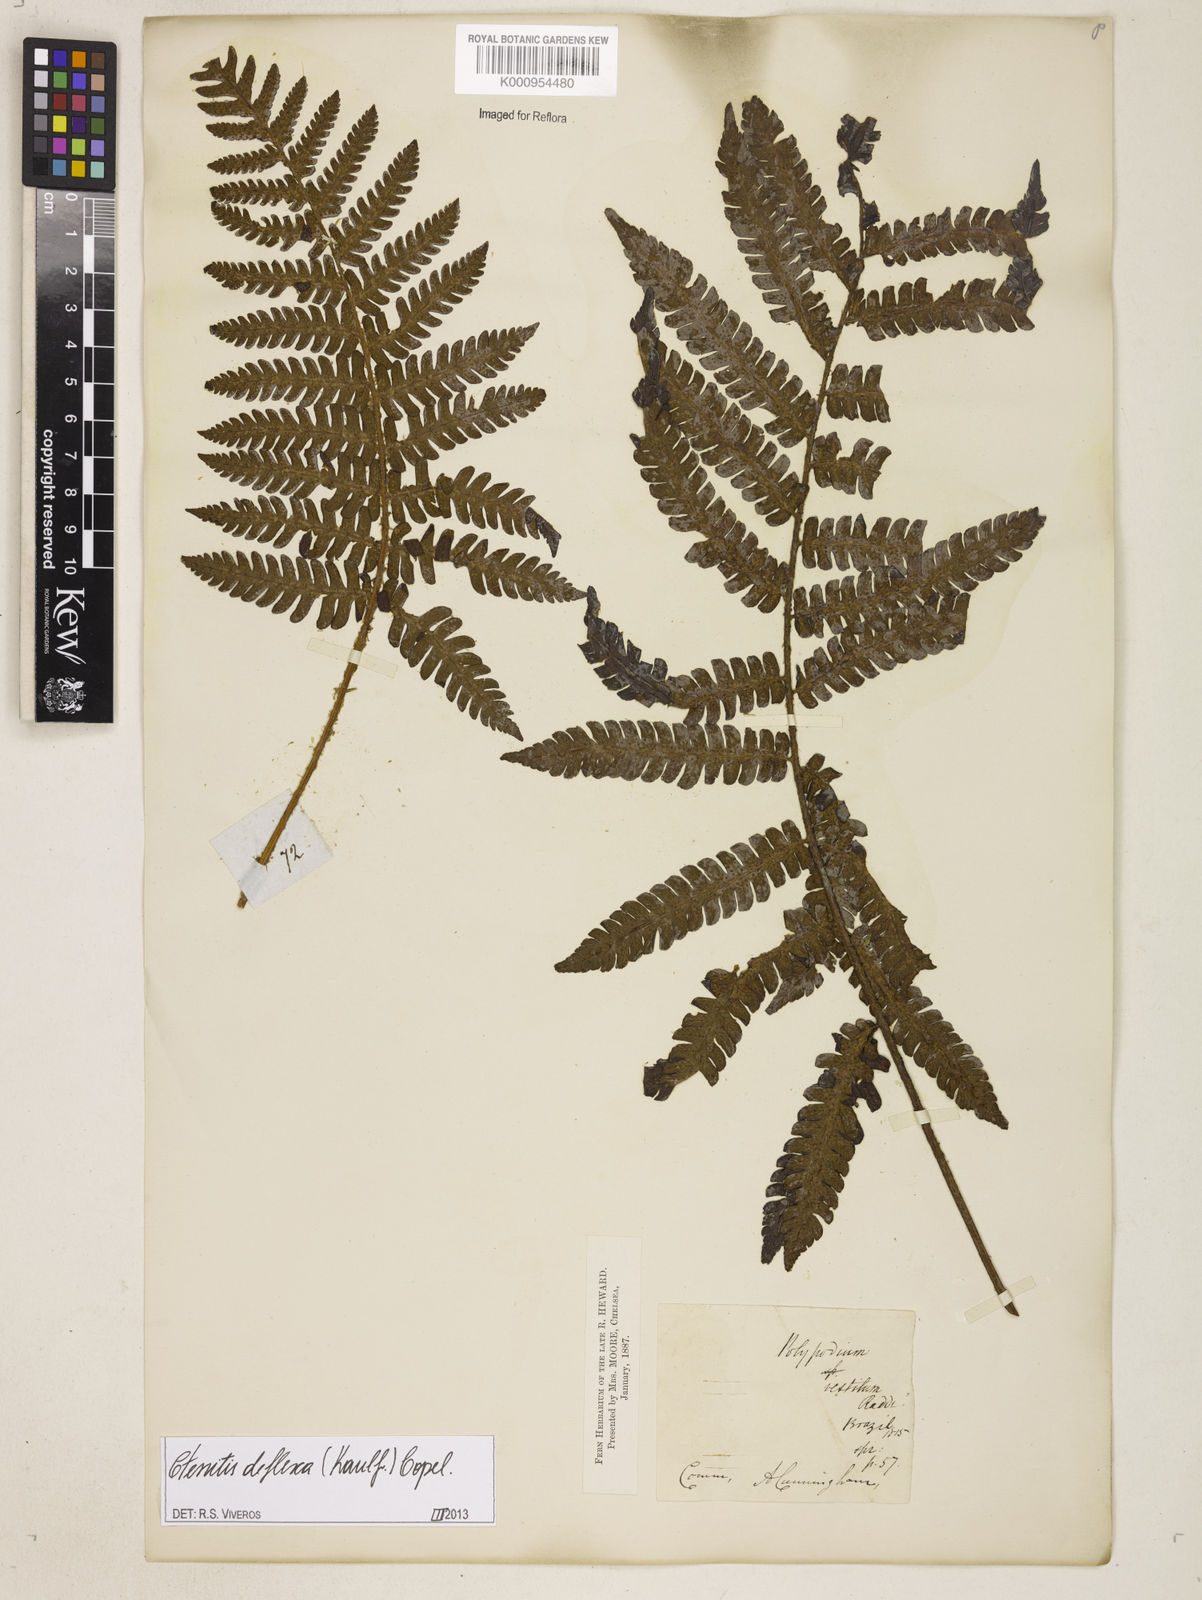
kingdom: Plantae
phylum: Tracheophyta
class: Polypodiopsida
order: Polypodiales
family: Dryopteridaceae
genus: Ctenitis
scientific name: Ctenitis deflexa
